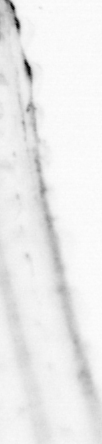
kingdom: Animalia
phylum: Chordata
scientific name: Chordata
